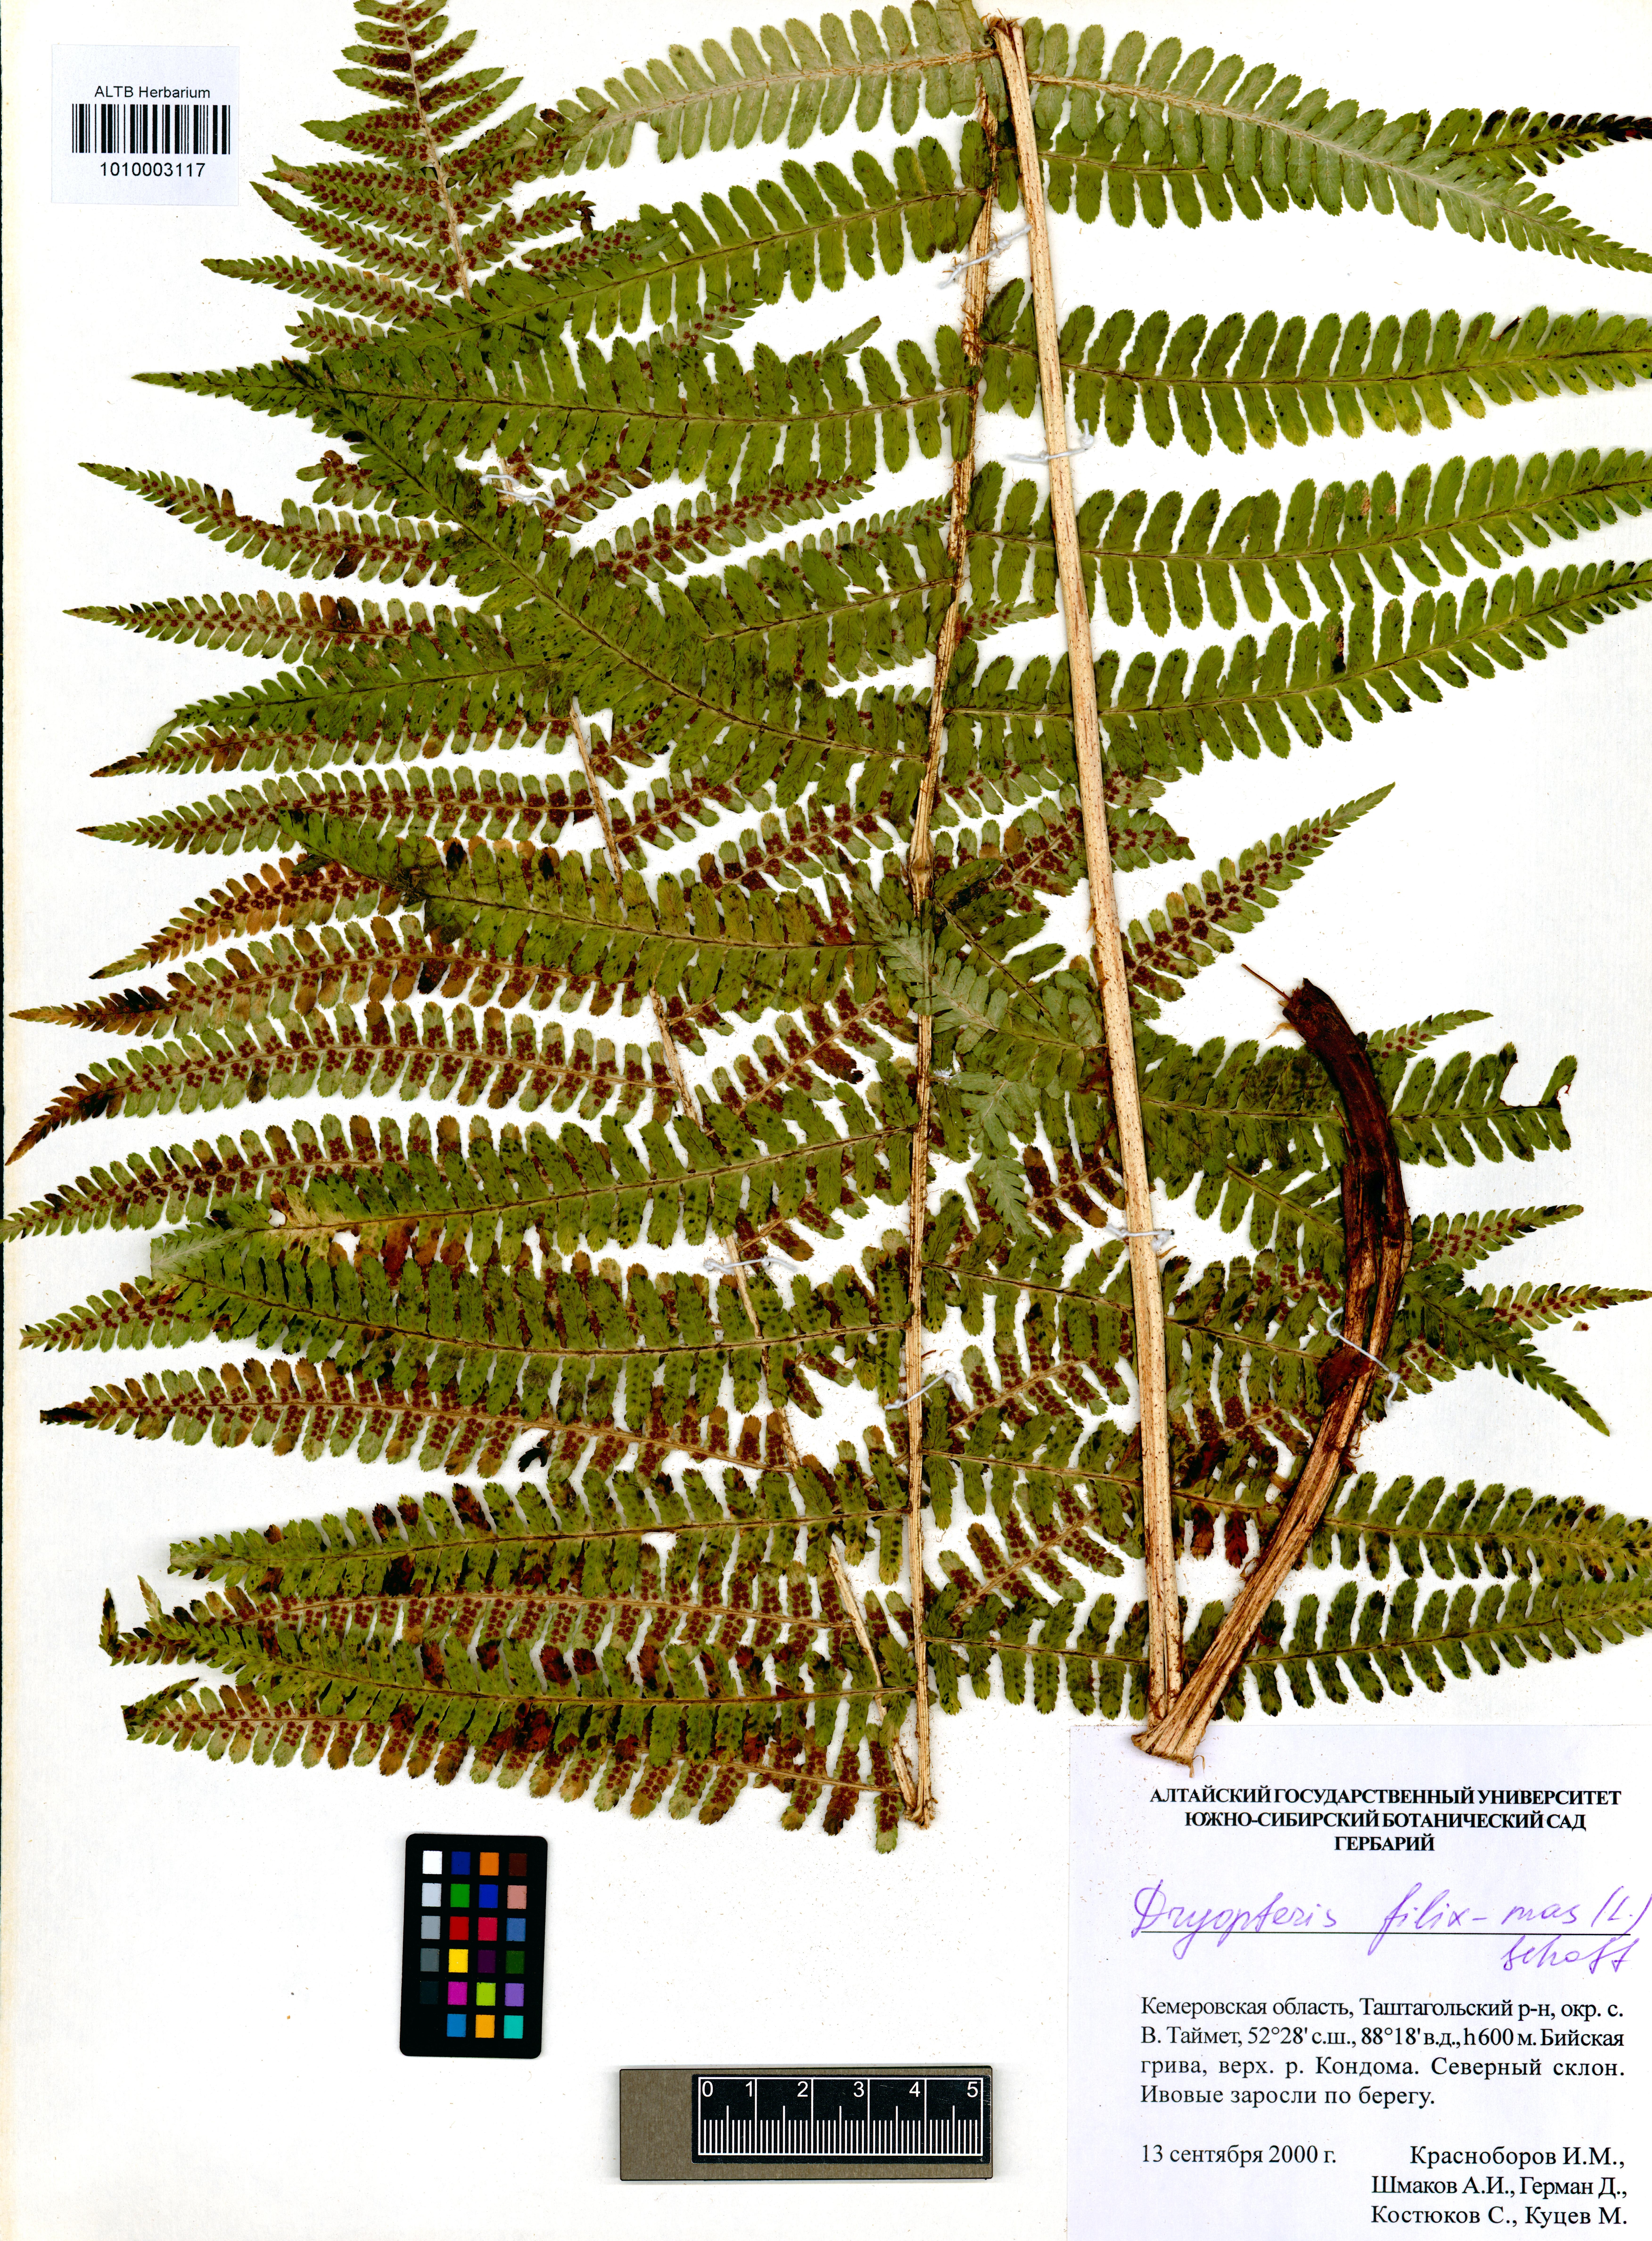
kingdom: Plantae
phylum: Tracheophyta
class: Polypodiopsida
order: Polypodiales
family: Dryopteridaceae
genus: Dryopteris
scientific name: Dryopteris filix-mas
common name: Male fern
